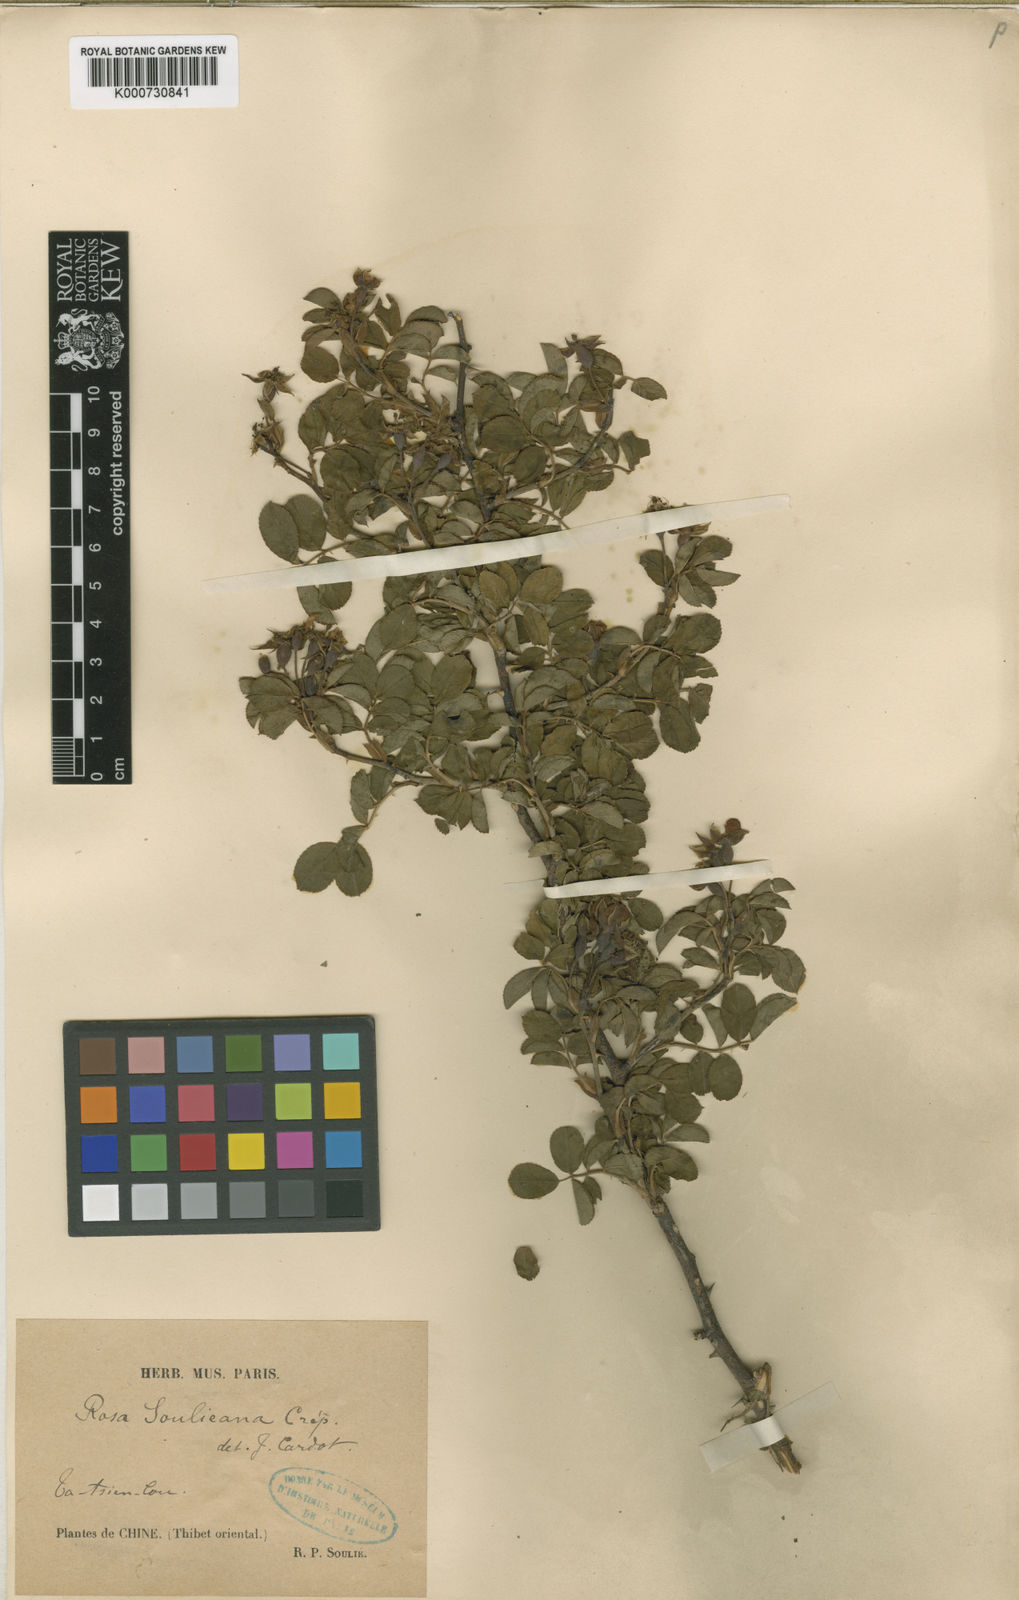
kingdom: Plantae
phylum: Tracheophyta
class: Magnoliopsida
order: Rosales
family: Rosaceae
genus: Rosa
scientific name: Rosa
